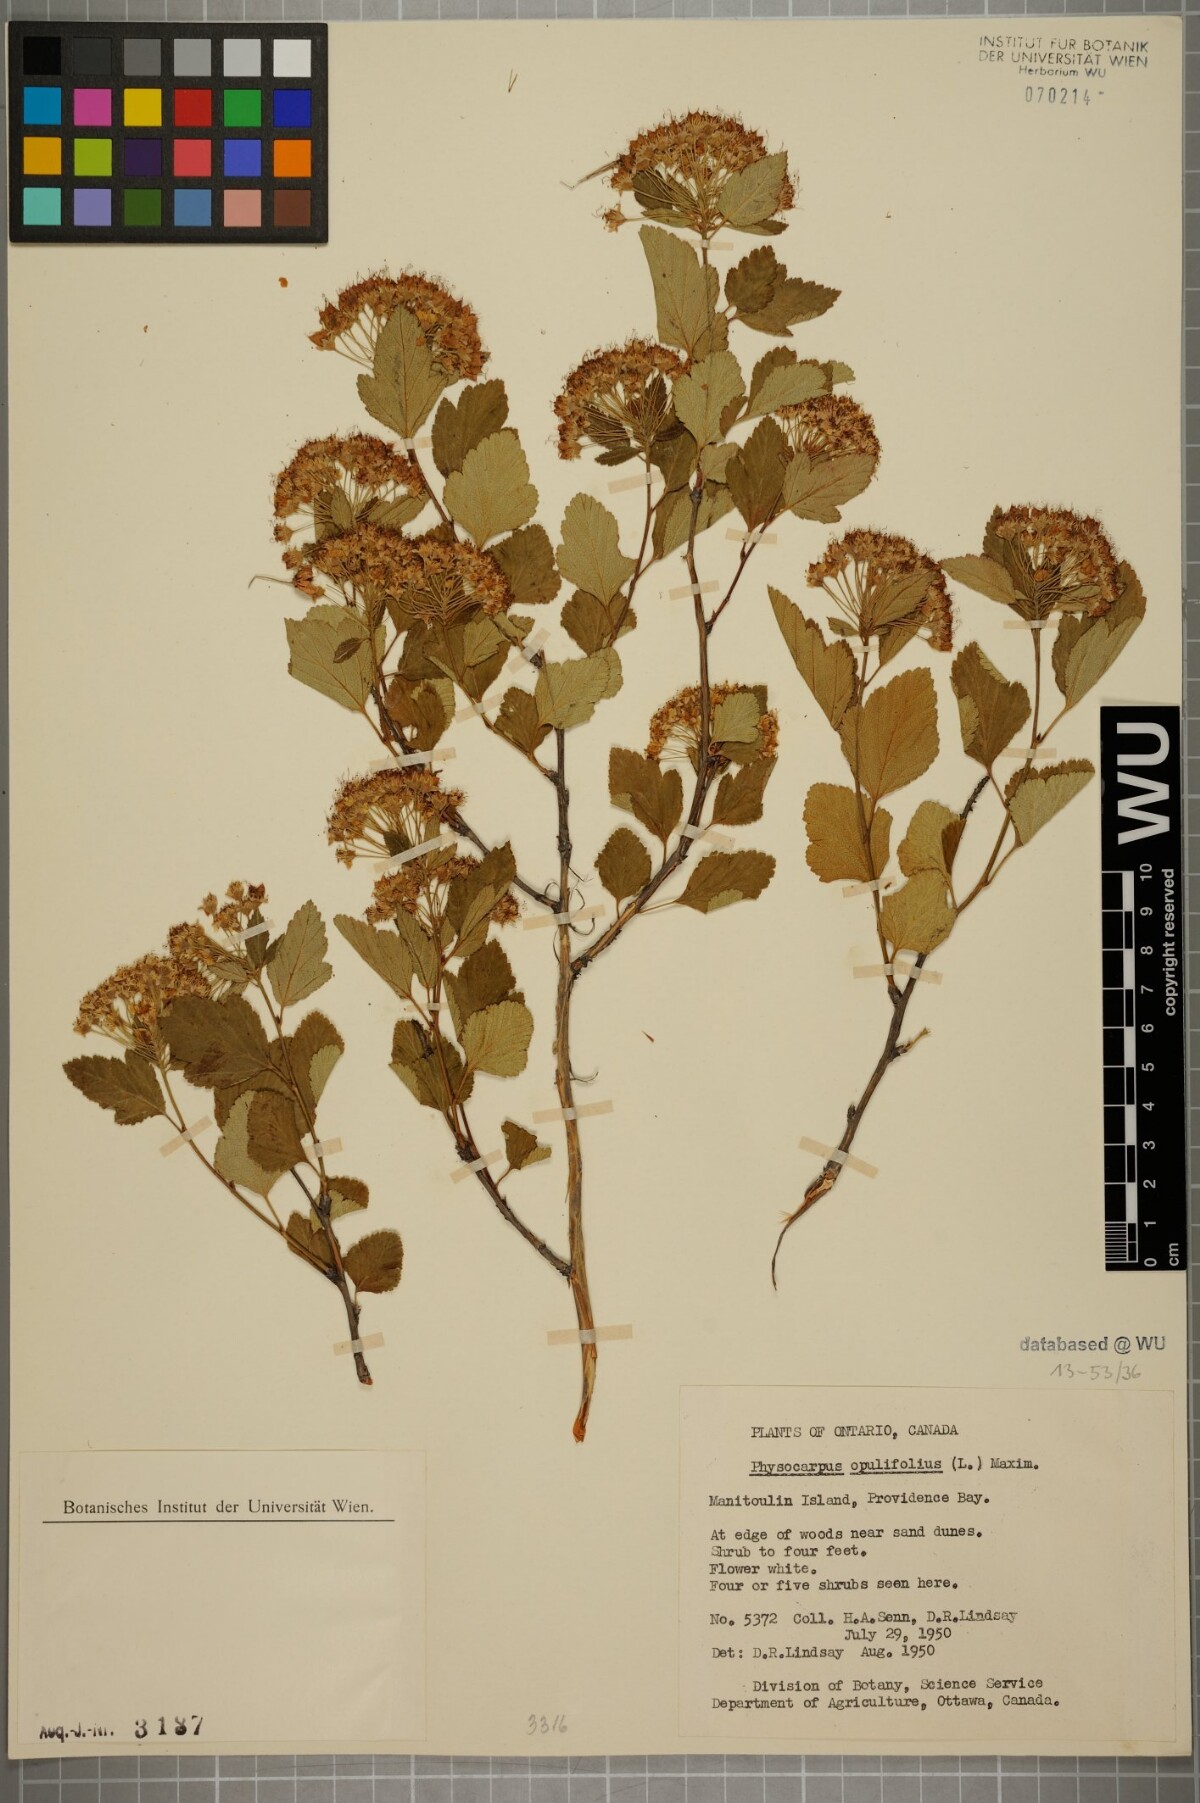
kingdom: Plantae
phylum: Tracheophyta
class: Magnoliopsida
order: Rosales
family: Rosaceae
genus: Physocarpus
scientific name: Physocarpus opulifolius
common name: Ninebark
